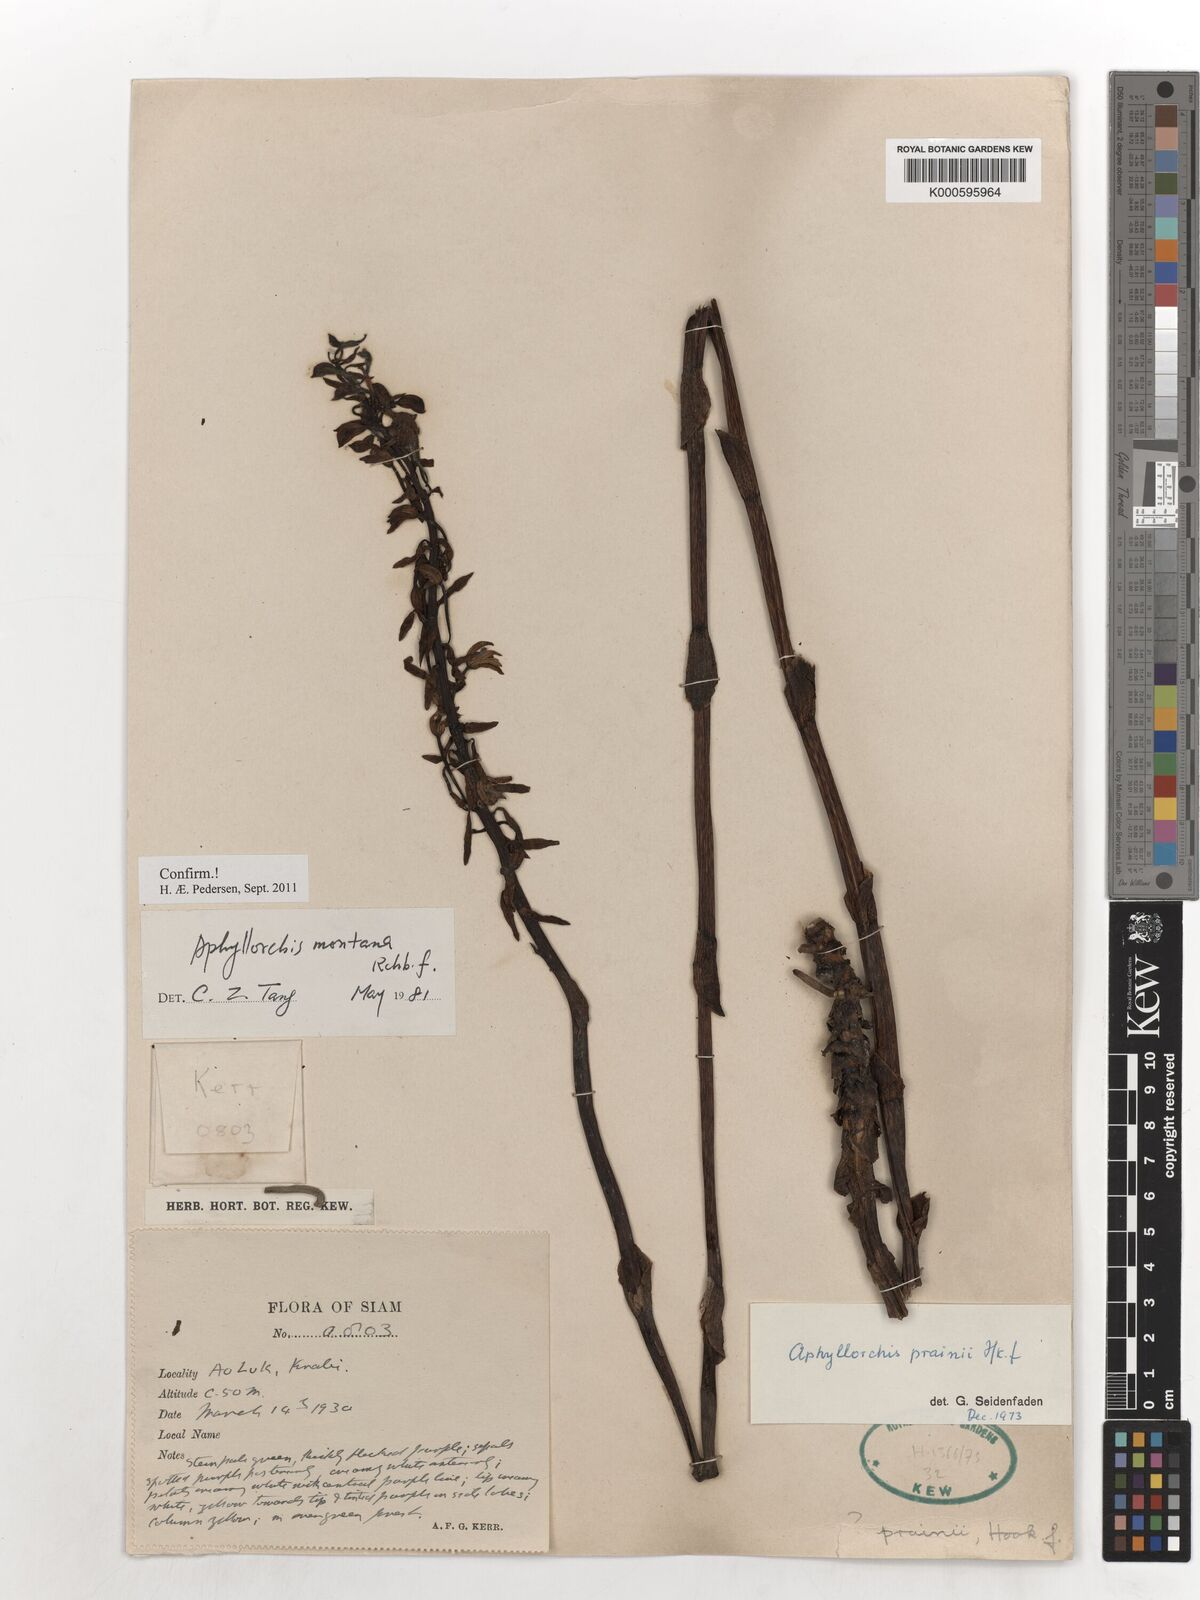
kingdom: Plantae
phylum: Tracheophyta
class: Liliopsida
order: Asparagales
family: Orchidaceae
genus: Aphyllorchis
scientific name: Aphyllorchis montana
